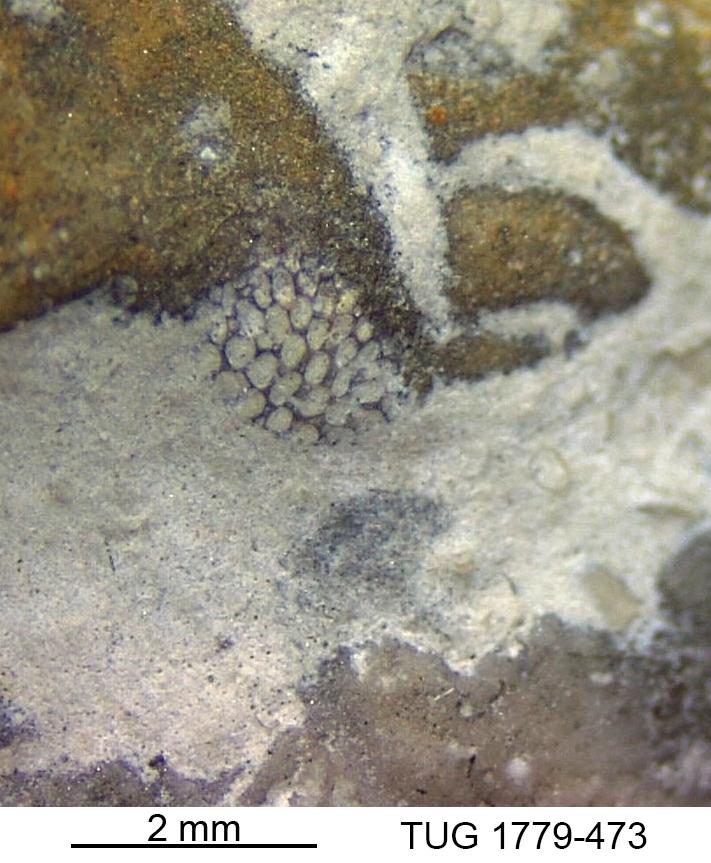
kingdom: Animalia
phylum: Bryozoa
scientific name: Bryozoa
